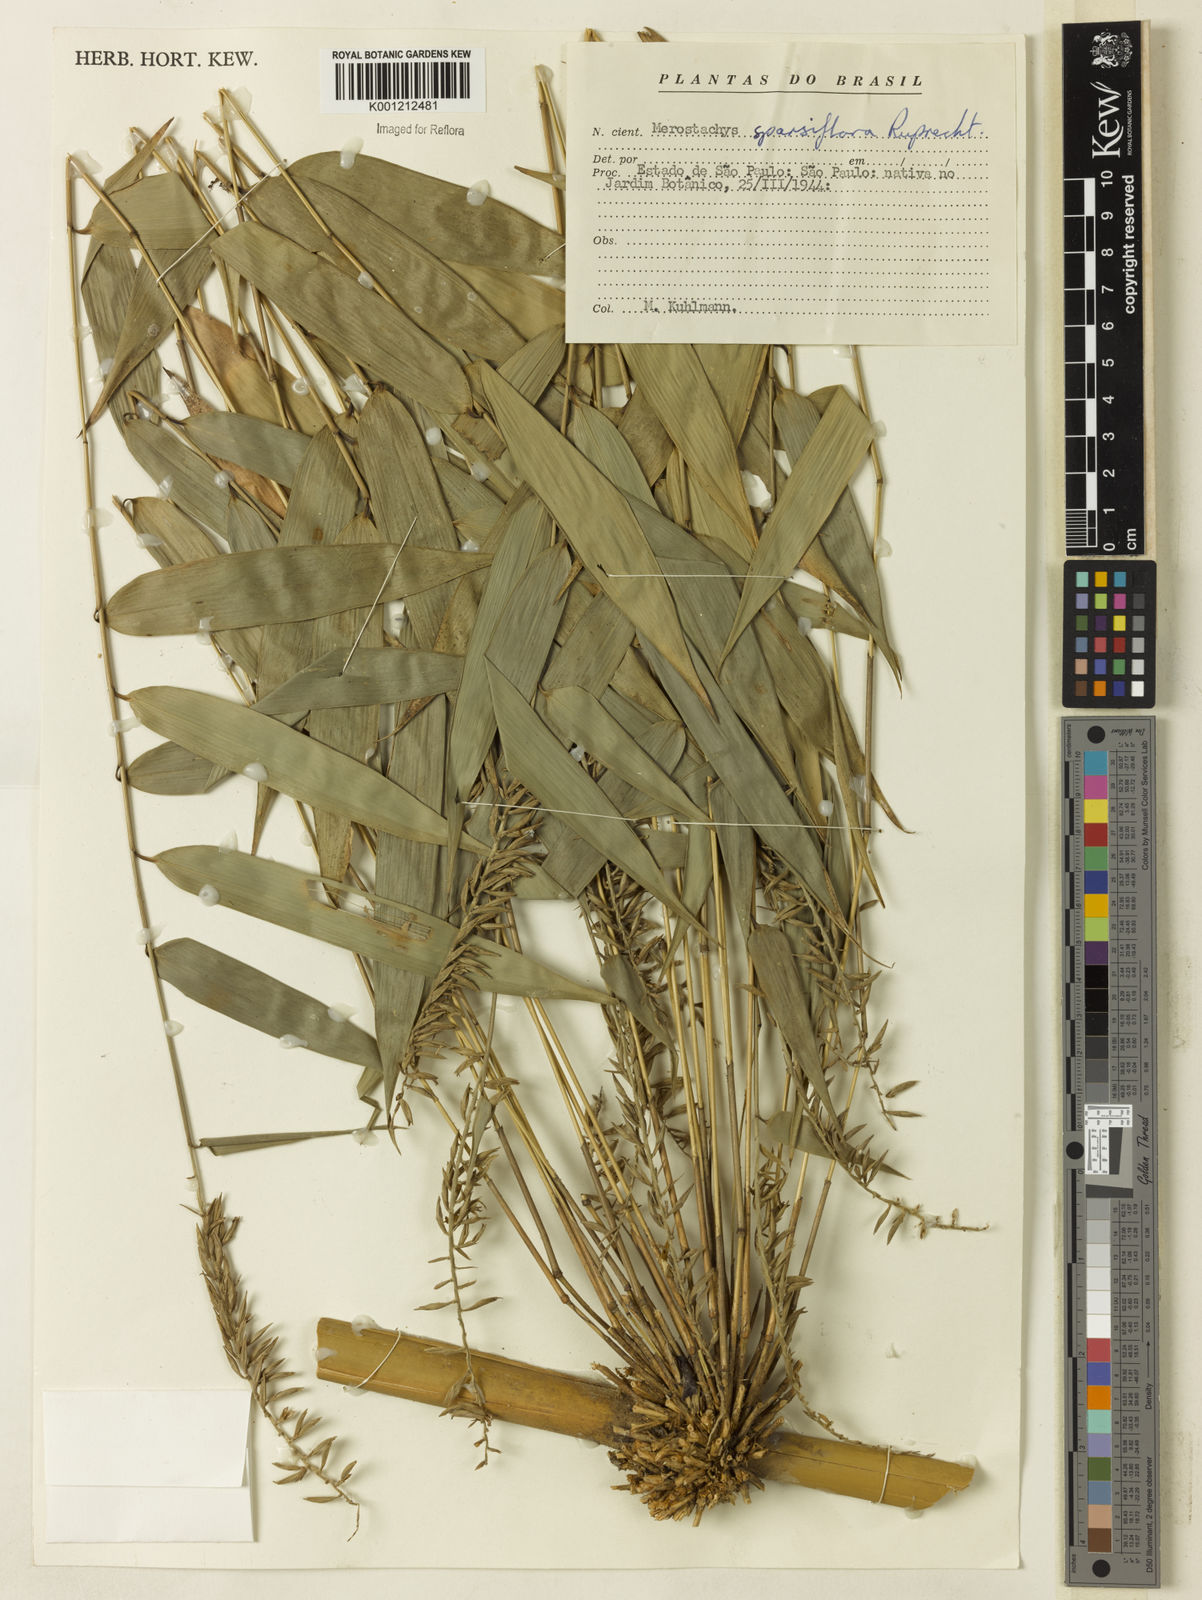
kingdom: Plantae
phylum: Tracheophyta
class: Liliopsida
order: Poales
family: Poaceae
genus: Merostachys
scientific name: Merostachys sparsiflora
